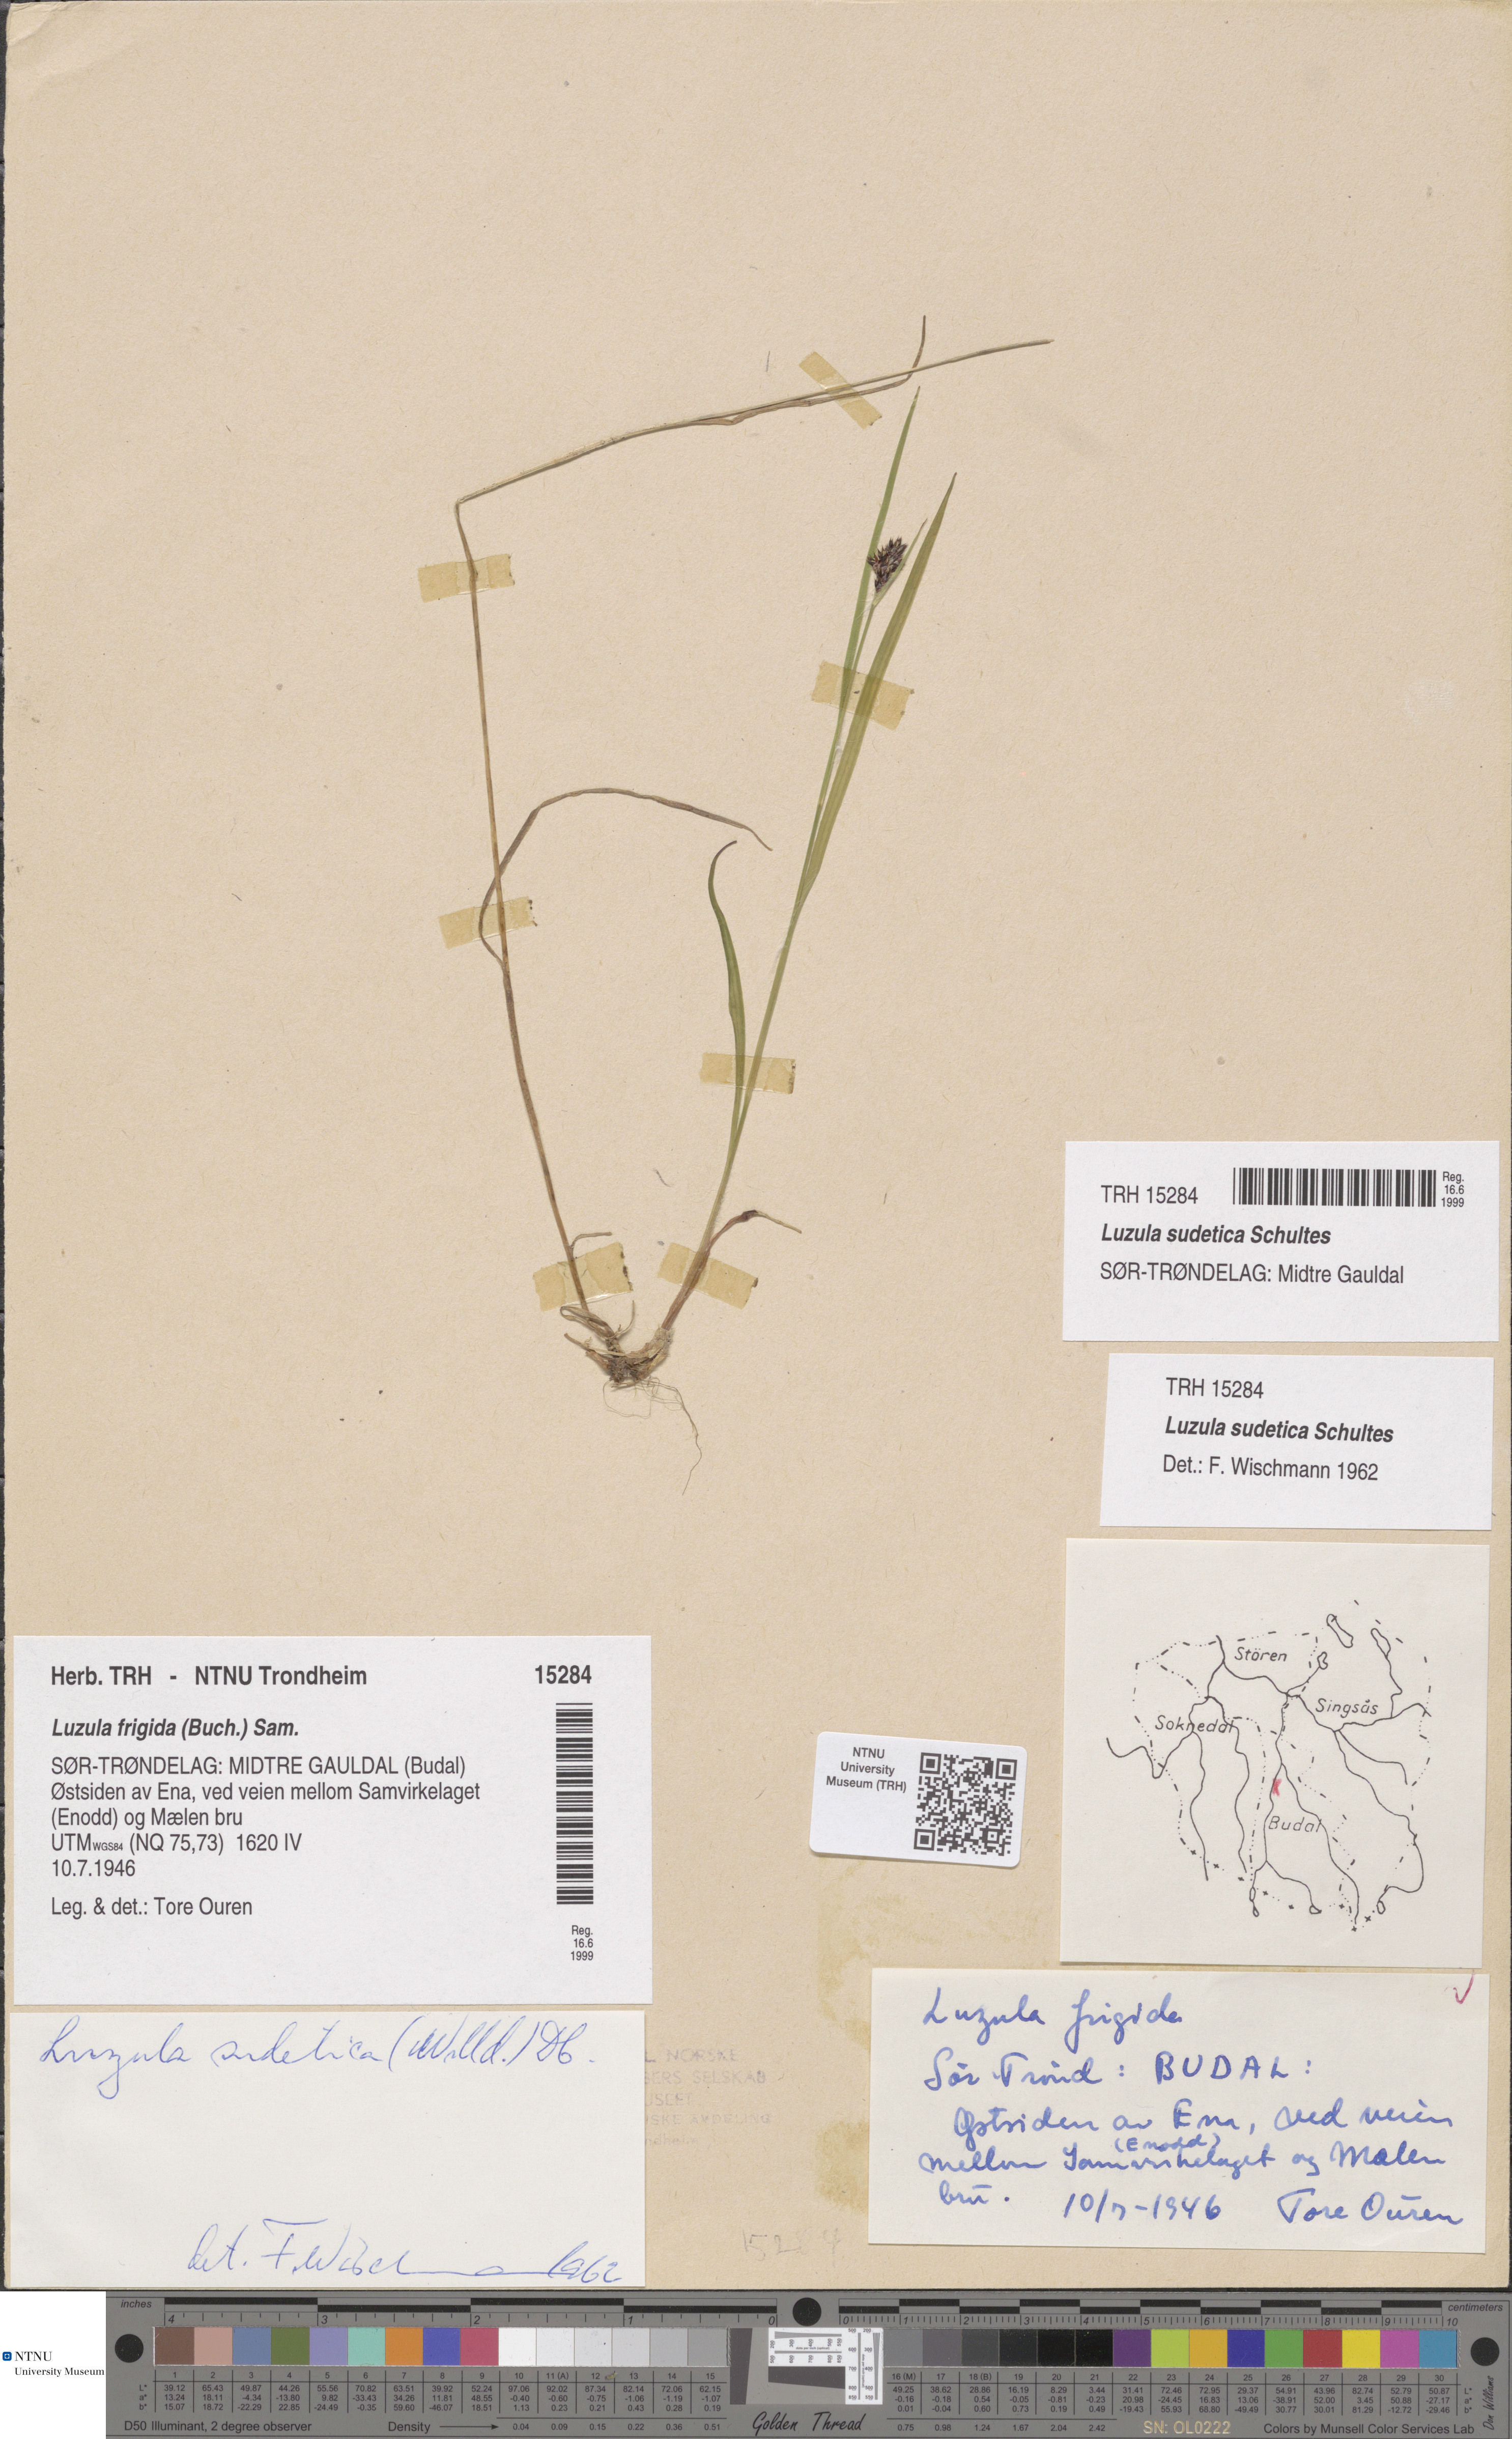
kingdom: Plantae
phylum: Tracheophyta
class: Liliopsida
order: Poales
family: Juncaceae
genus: Luzula
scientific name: Luzula sudetica
